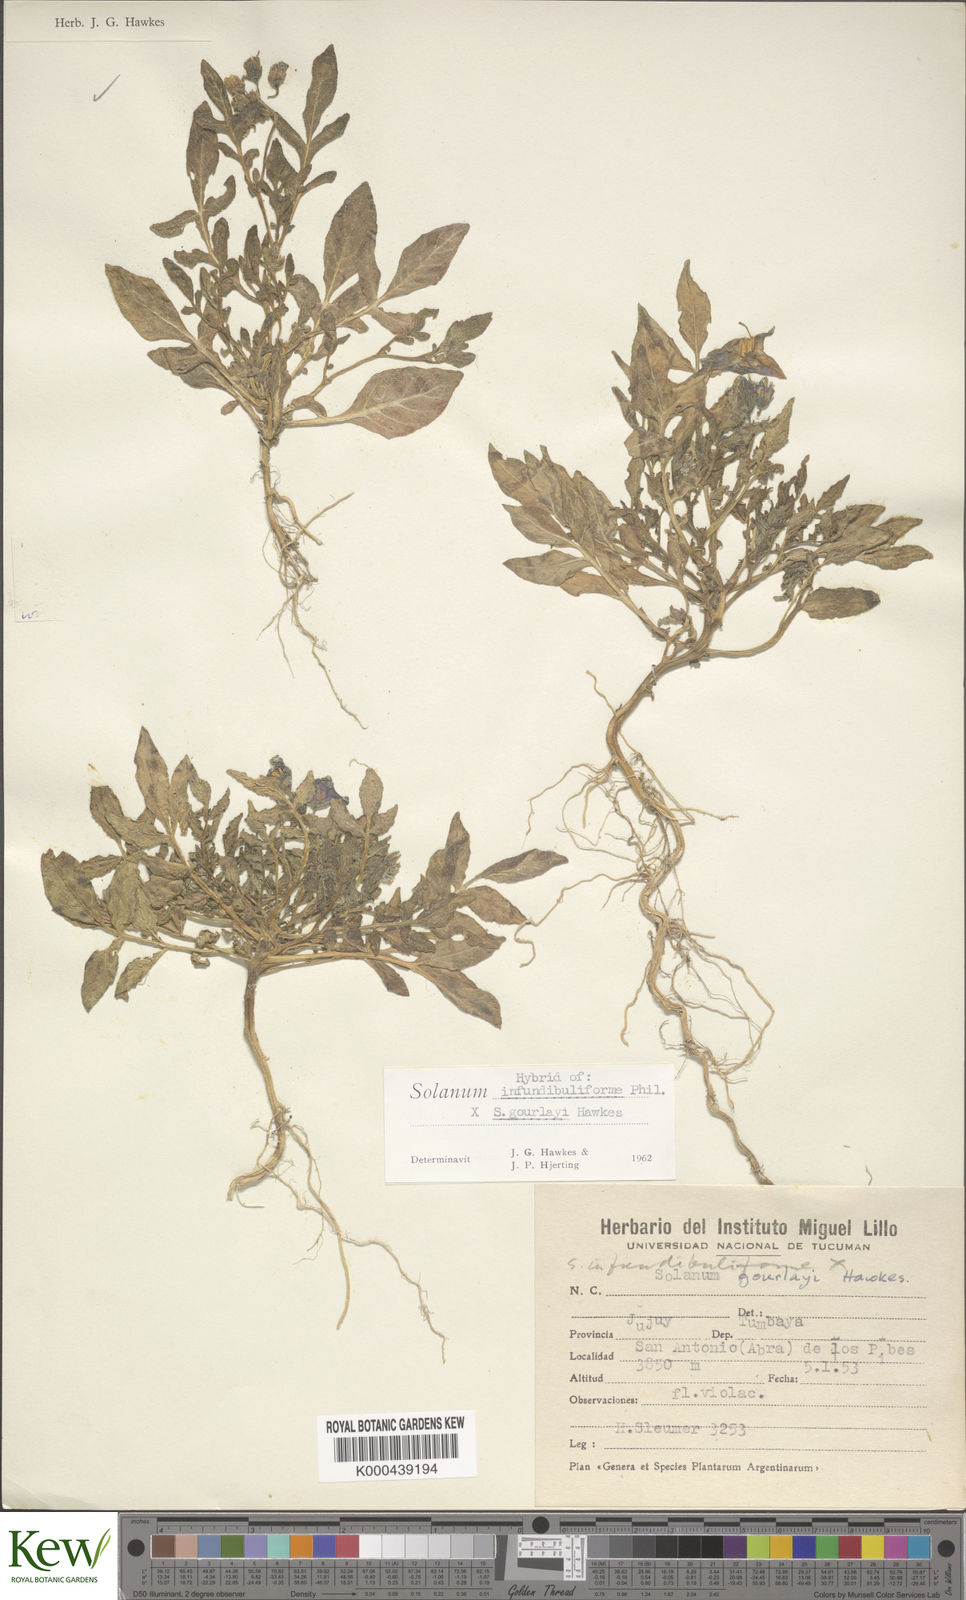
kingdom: Plantae
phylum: Tracheophyta
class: Magnoliopsida
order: Solanales
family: Solanaceae
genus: Solanum
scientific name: Solanum infundibuliforme
